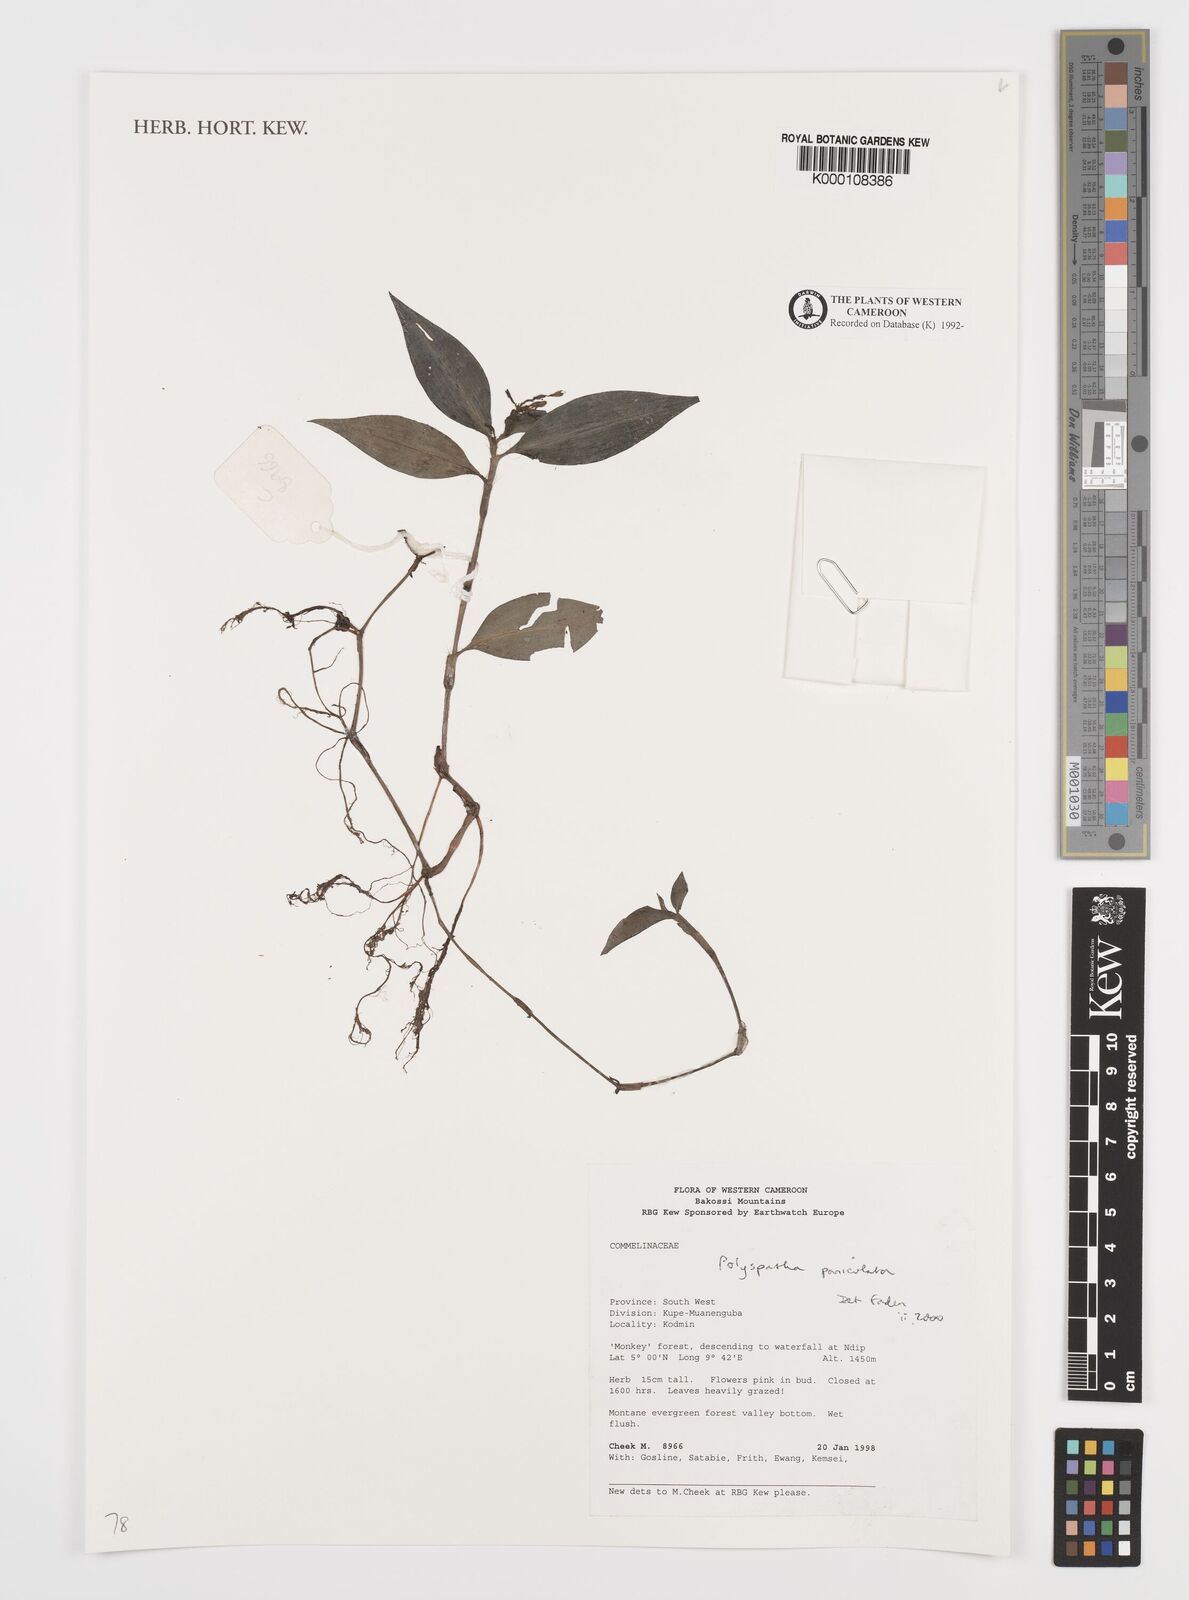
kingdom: Plantae
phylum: Tracheophyta
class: Liliopsida
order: Commelinales
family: Commelinaceae
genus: Polyspatha
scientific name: Polyspatha paniculata
